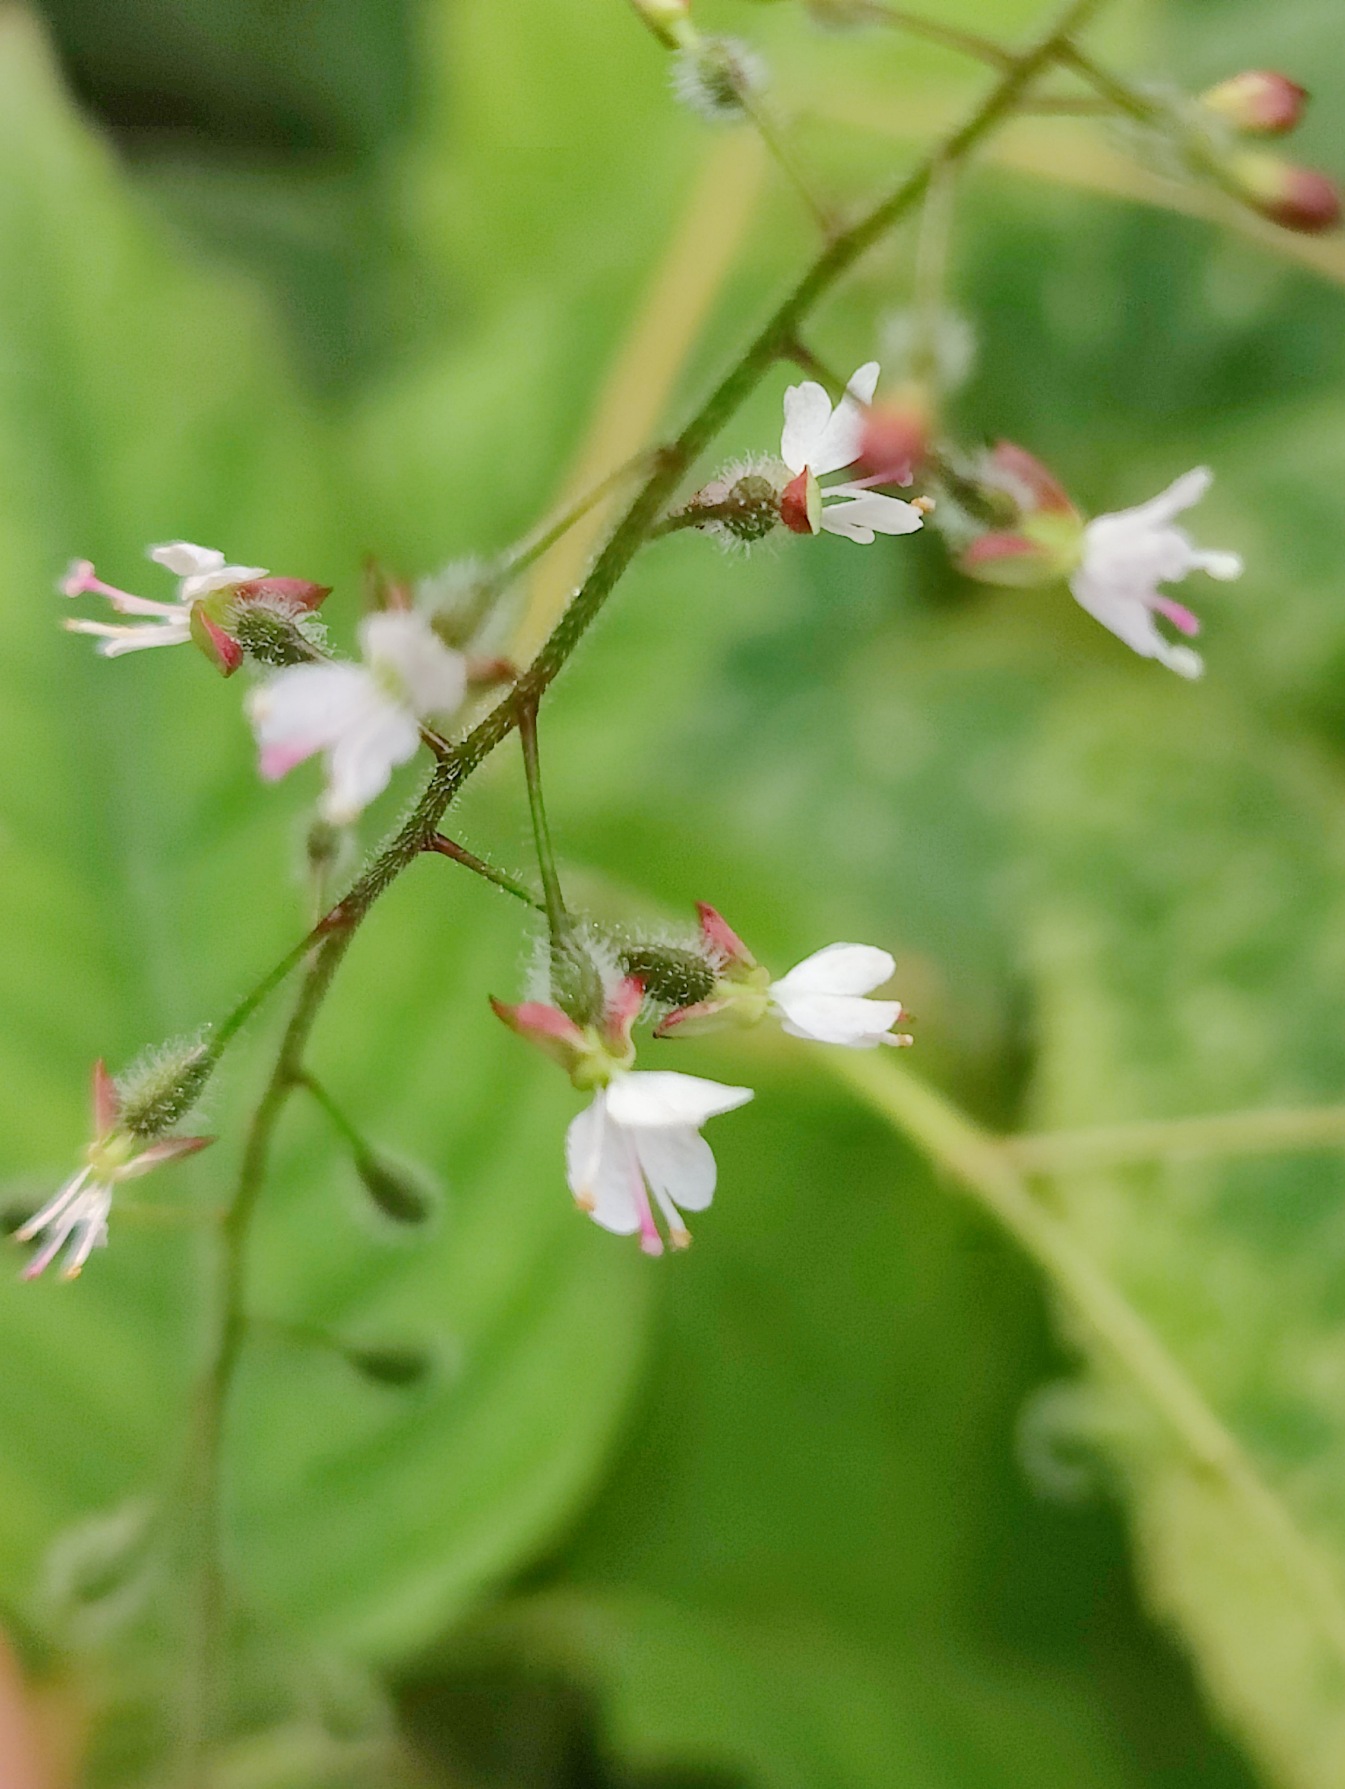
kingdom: Plantae
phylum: Tracheophyta
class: Magnoliopsida
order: Myrtales
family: Onagraceae
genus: Circaea
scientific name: Circaea lutetiana
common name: Dunet steffensurt
